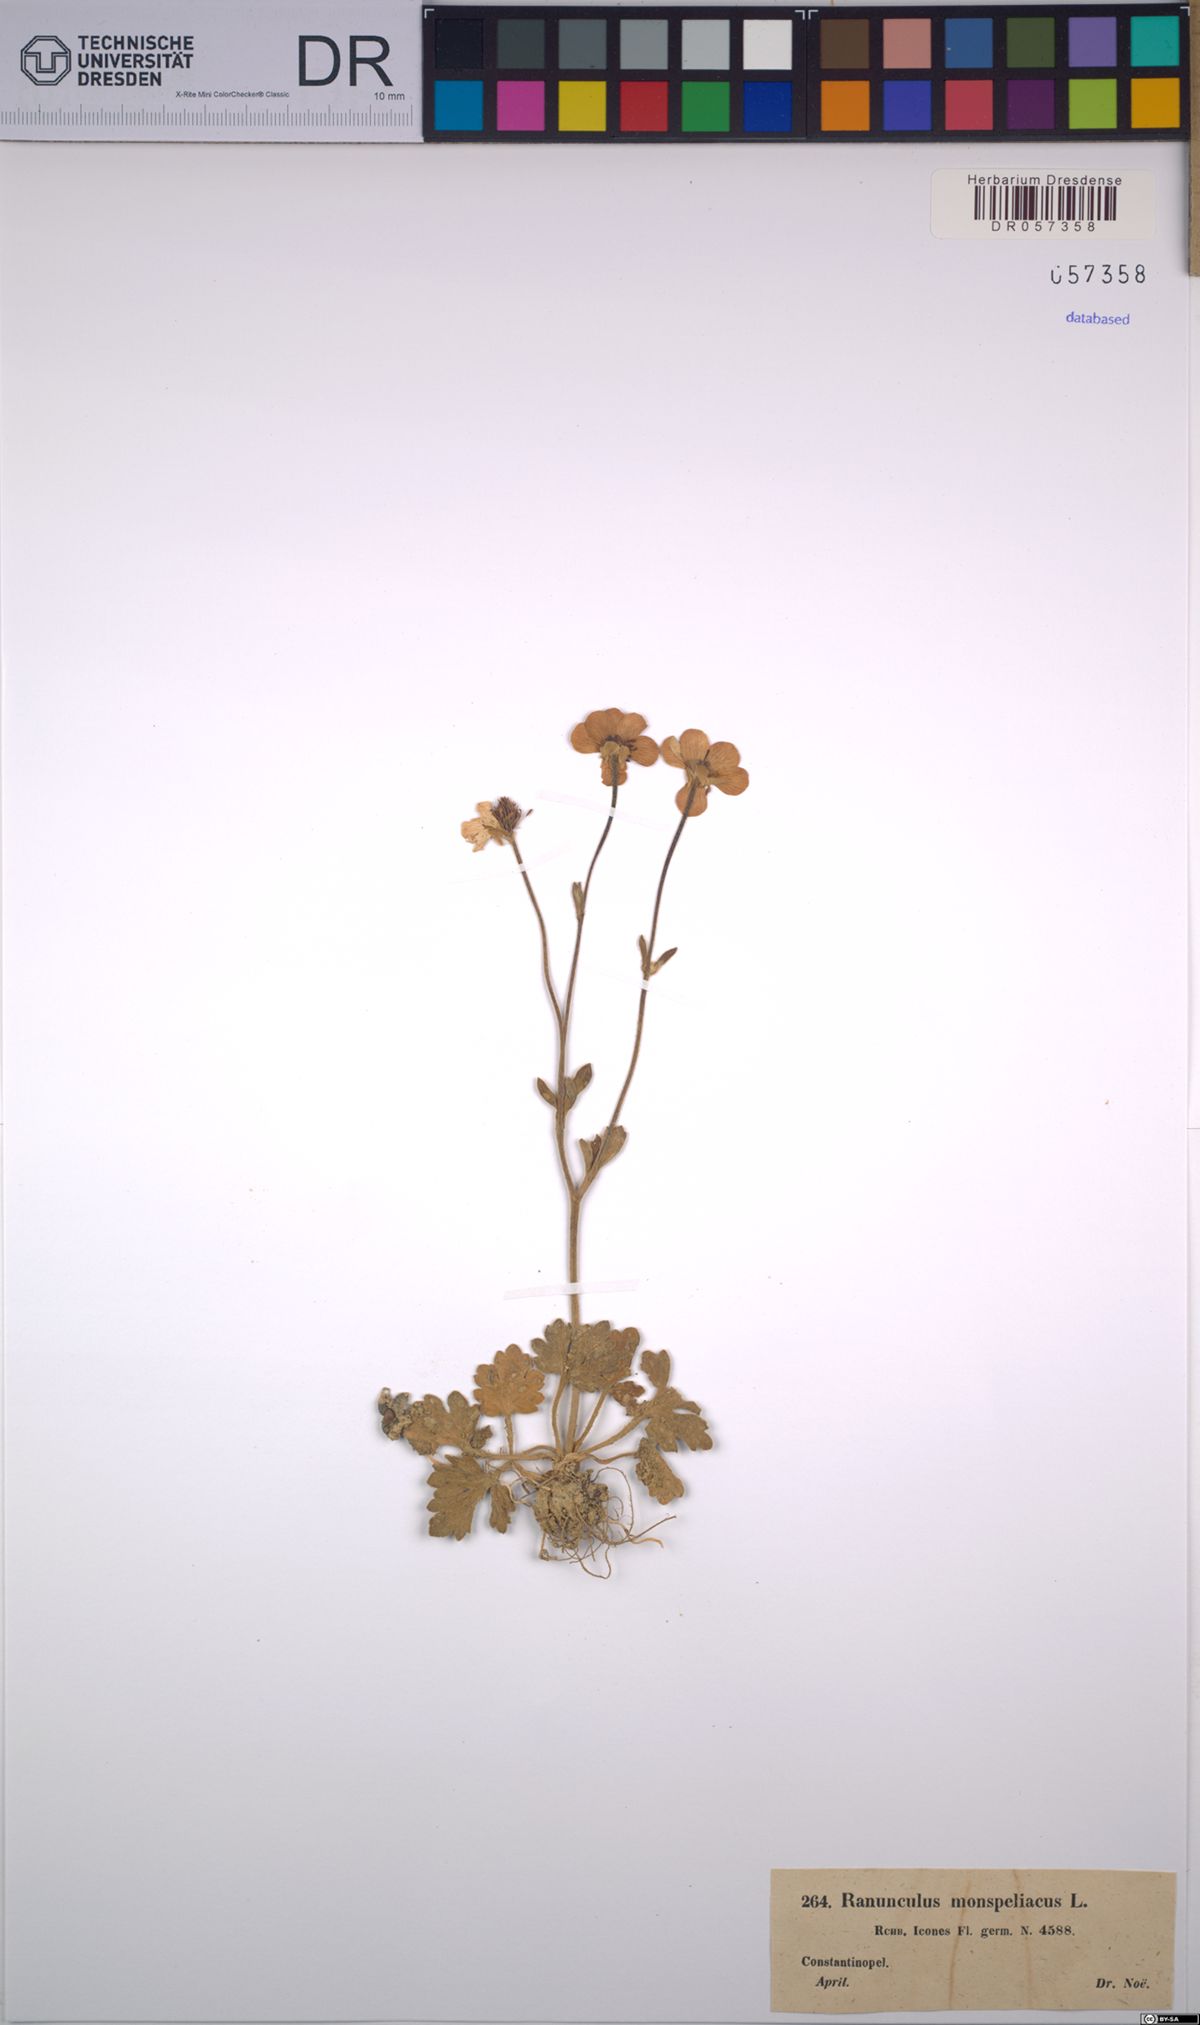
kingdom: Plantae
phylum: Tracheophyta
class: Magnoliopsida
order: Ranunculales
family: Ranunculaceae
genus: Ranunculus
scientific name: Ranunculus monspeliacus
